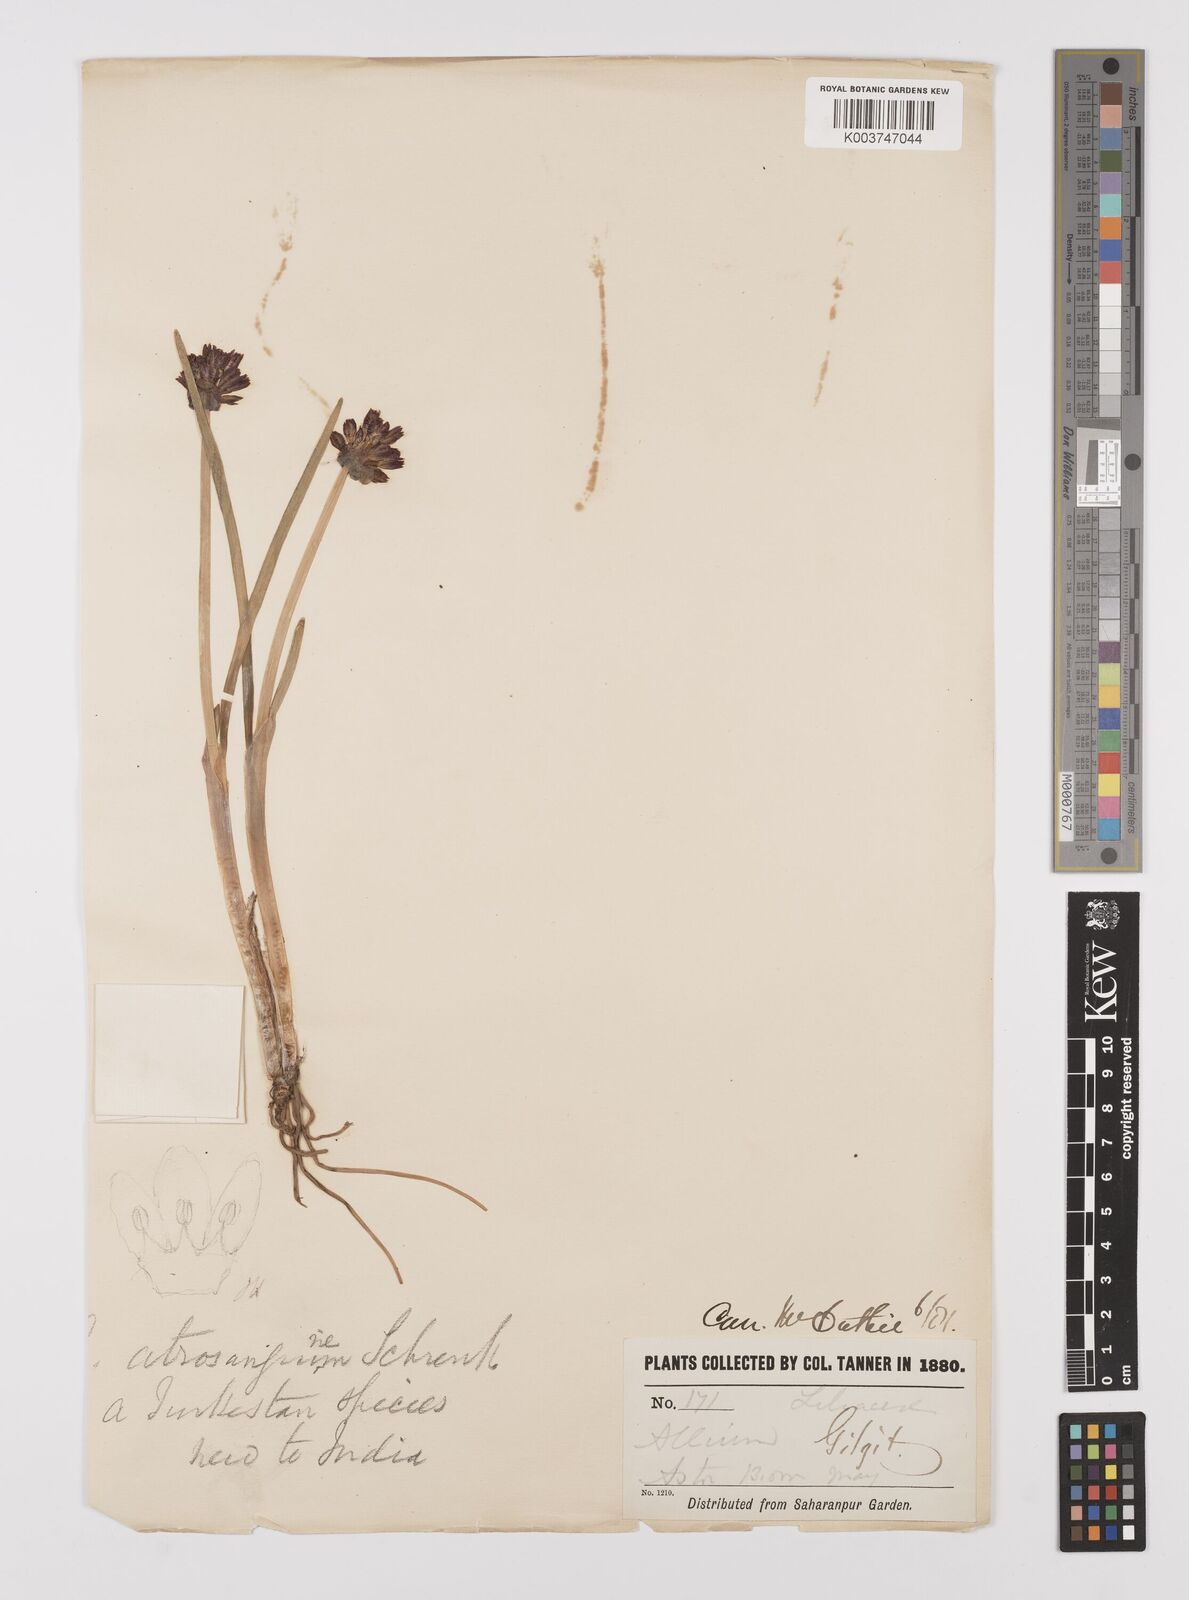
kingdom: Plantae
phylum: Tracheophyta
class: Liliopsida
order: Asparagales
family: Amaryllidaceae
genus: Allium
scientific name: Allium atrosanguineum
